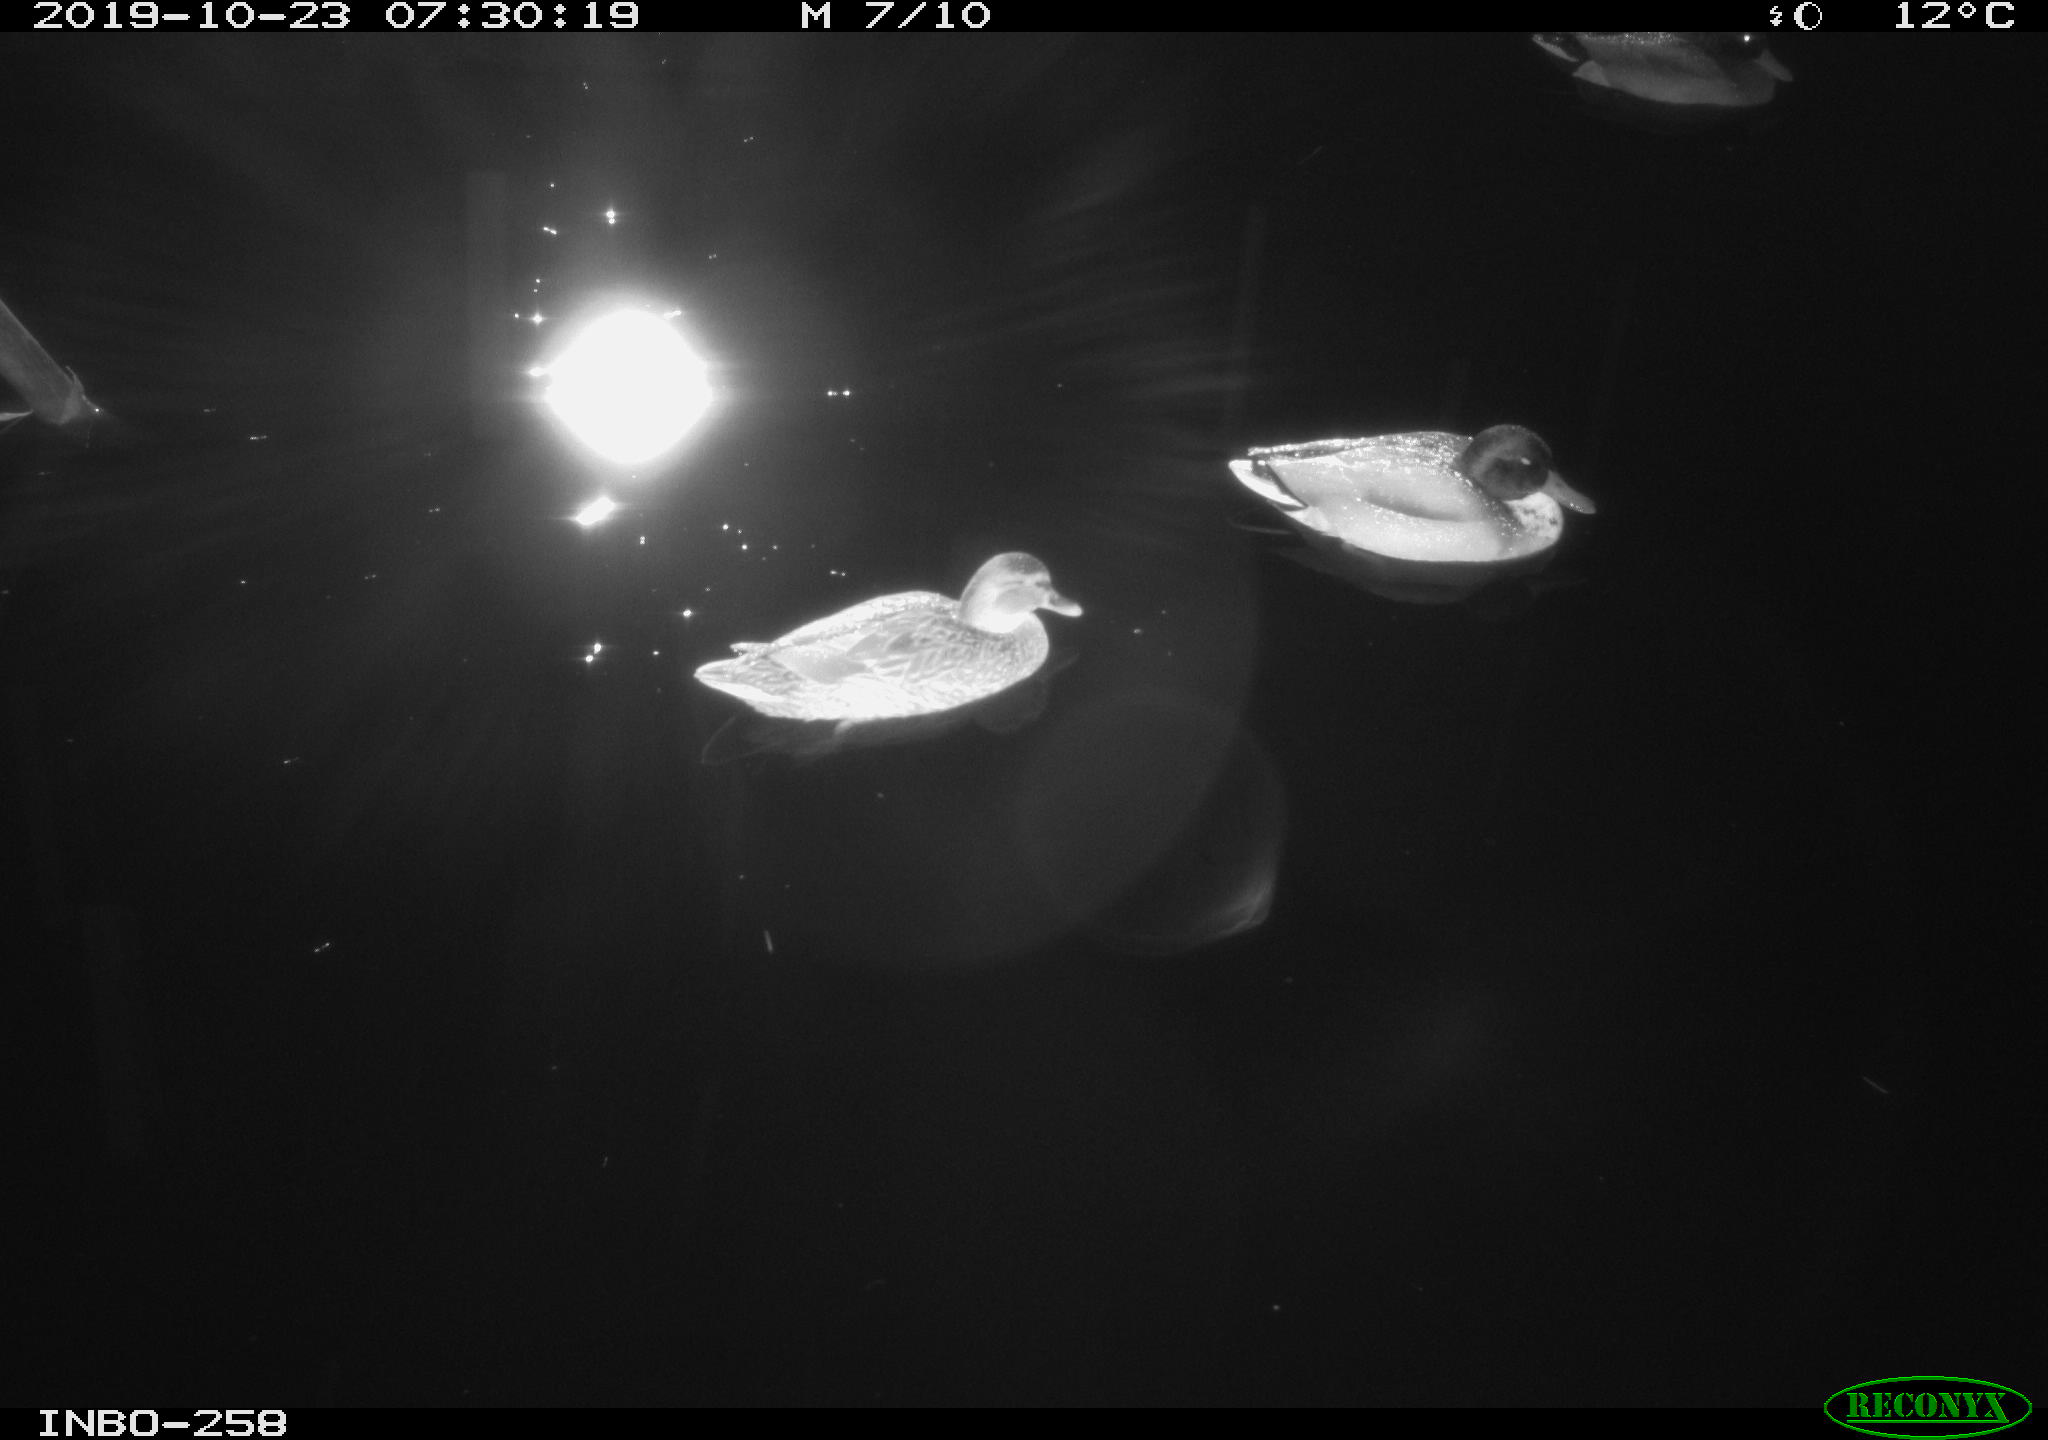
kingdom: Animalia
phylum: Chordata
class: Aves
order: Anseriformes
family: Anatidae
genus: Anas
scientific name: Anas platyrhynchos
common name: Mallard
